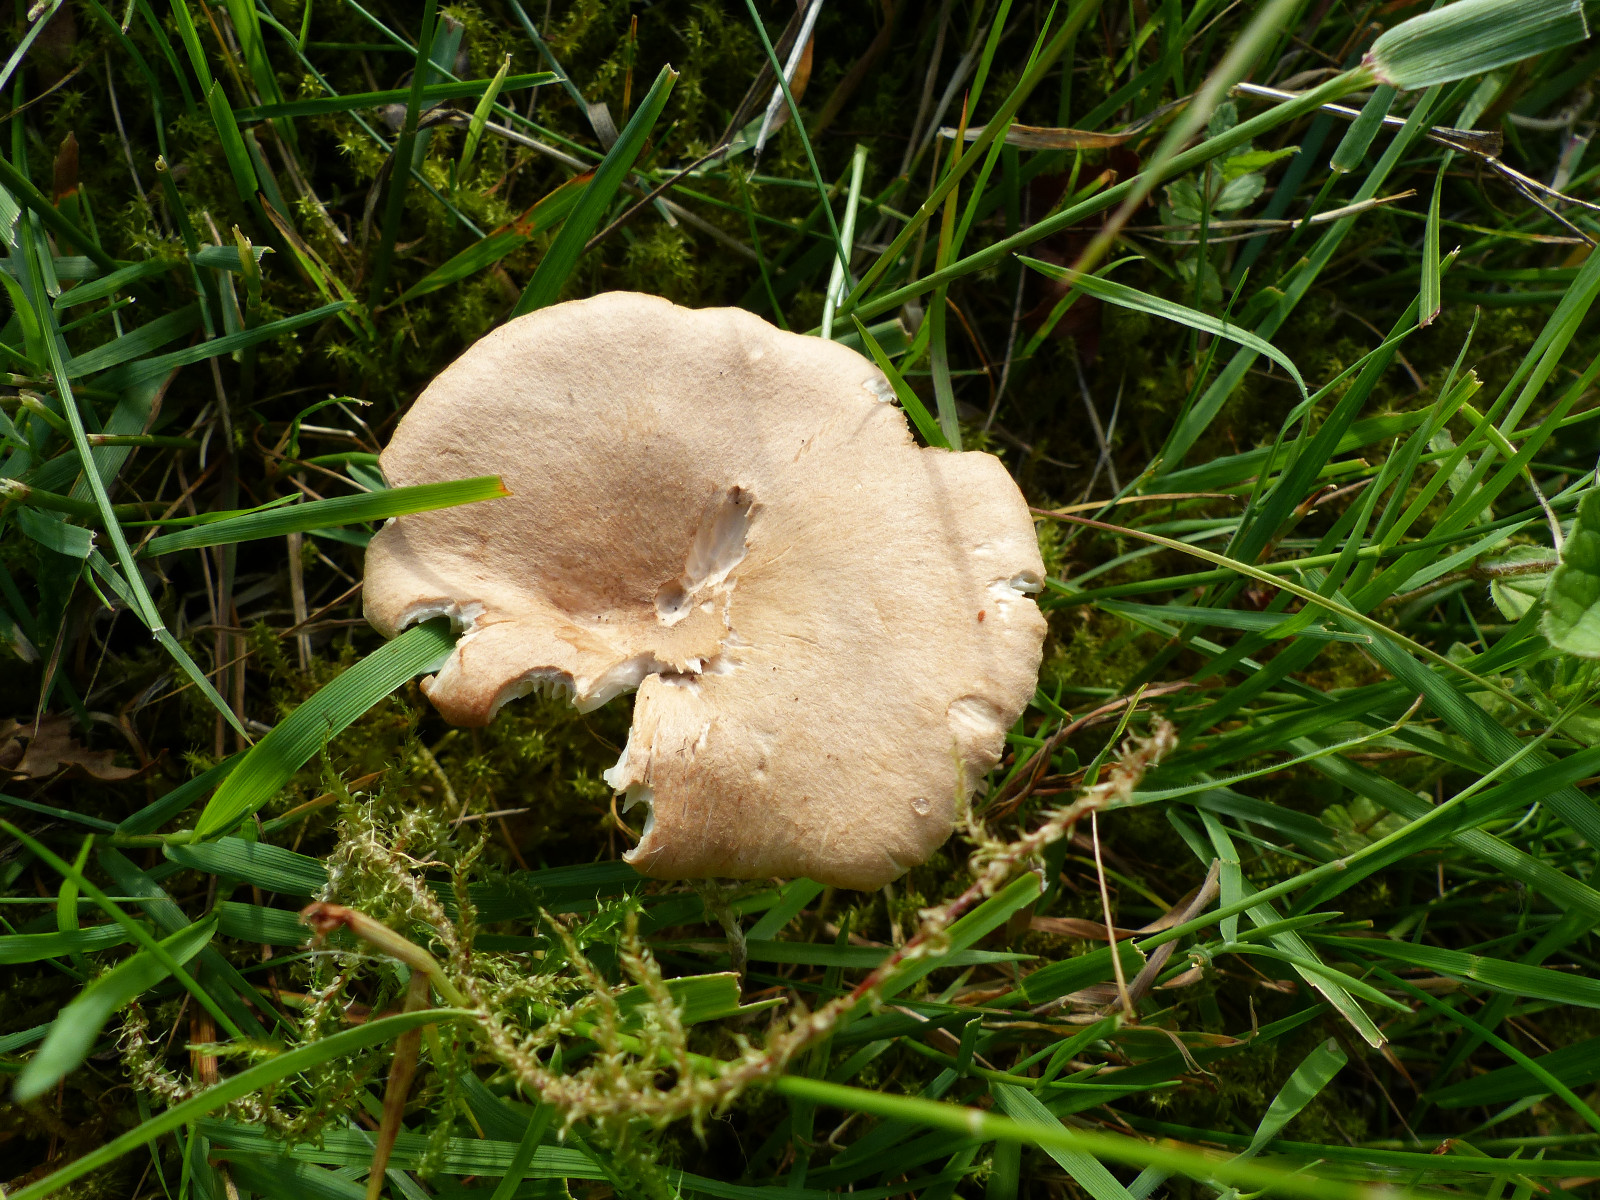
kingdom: Fungi
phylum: Basidiomycota
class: Agaricomycetes
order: Agaricales
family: Tricholomataceae
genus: Infundibulicybe
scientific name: Infundibulicybe gibba
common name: almindelig tragthat
